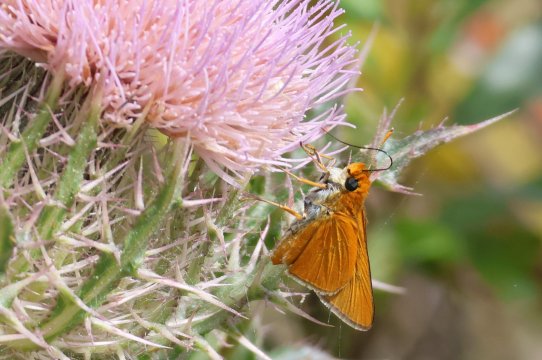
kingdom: Animalia
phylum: Arthropoda
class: Insecta
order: Lepidoptera
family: Hesperiidae
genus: Euphyes
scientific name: Euphyes arpa
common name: Palmetto Skipper
